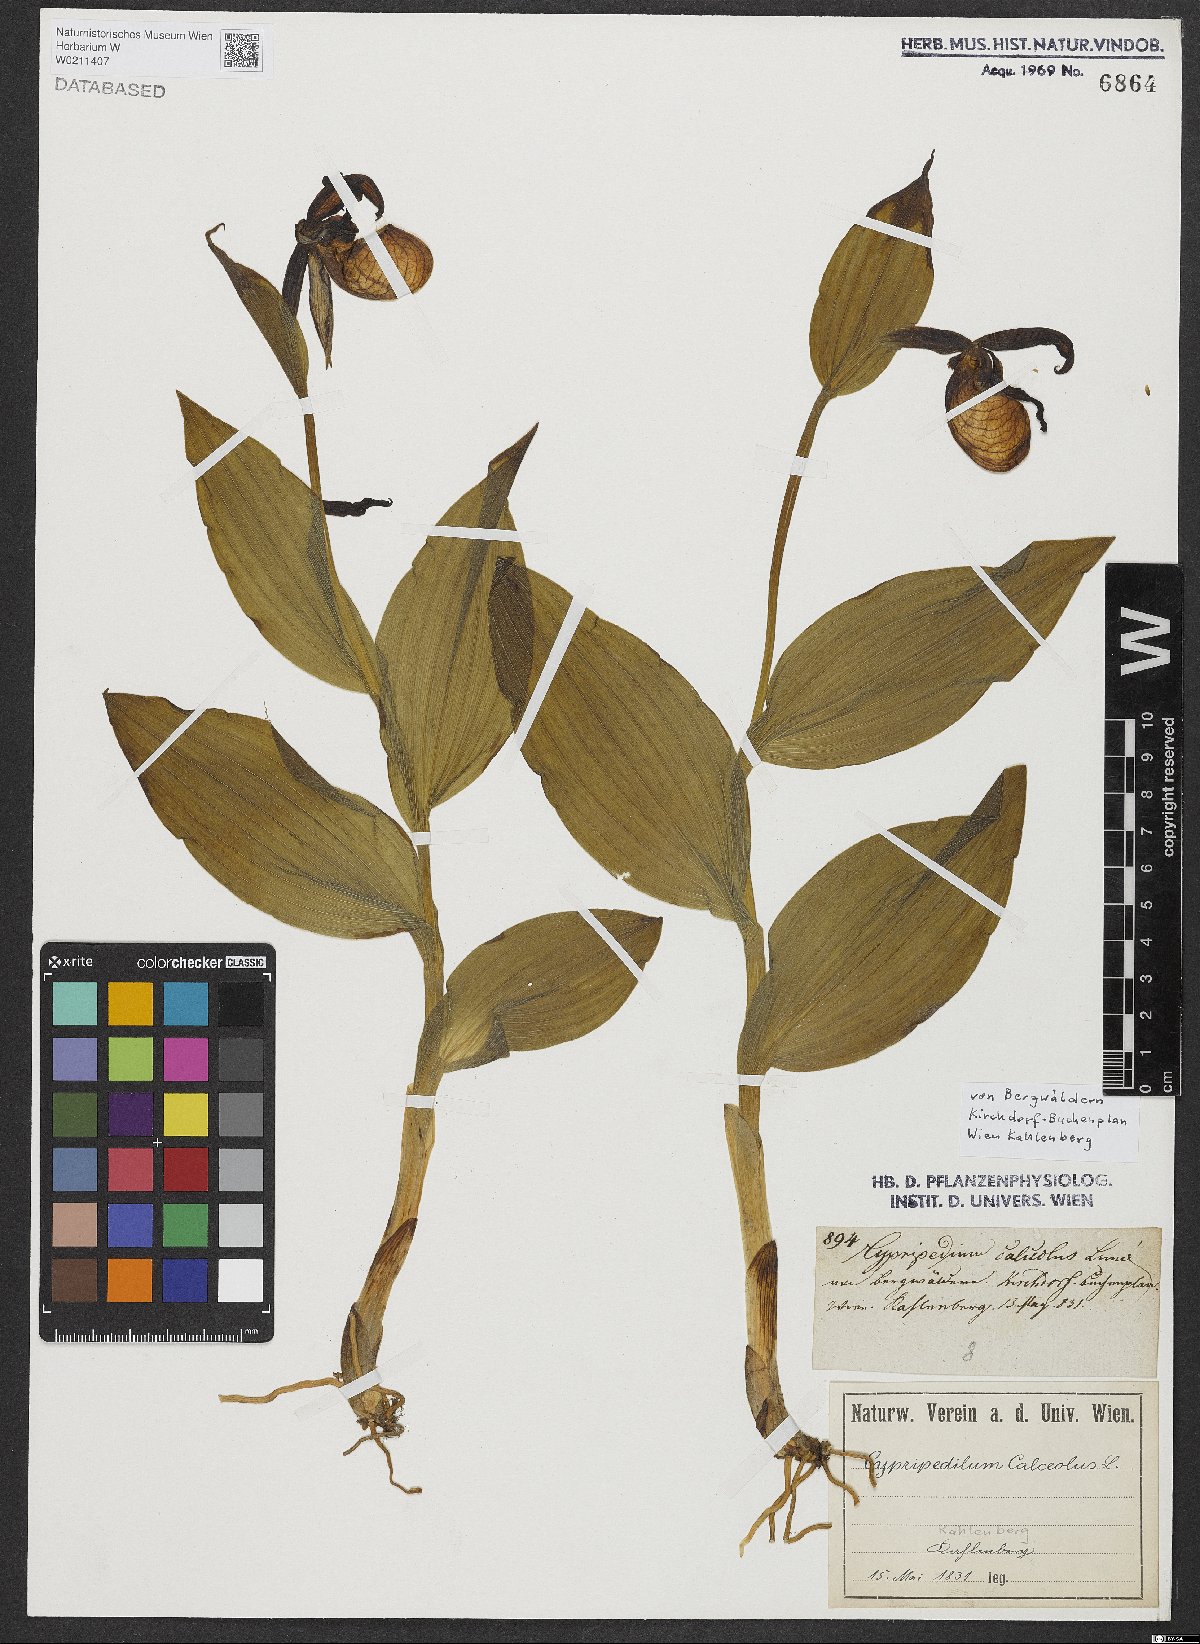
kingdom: Plantae
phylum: Tracheophyta
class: Liliopsida
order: Asparagales
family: Orchidaceae
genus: Cypripedium
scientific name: Cypripedium calceolus
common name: Lady's-slipper
